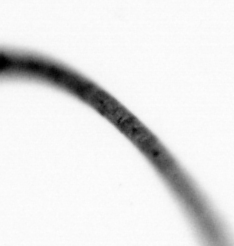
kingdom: Chromista
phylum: Ochrophyta
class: Bacillariophyceae
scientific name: Bacillariophyceae
